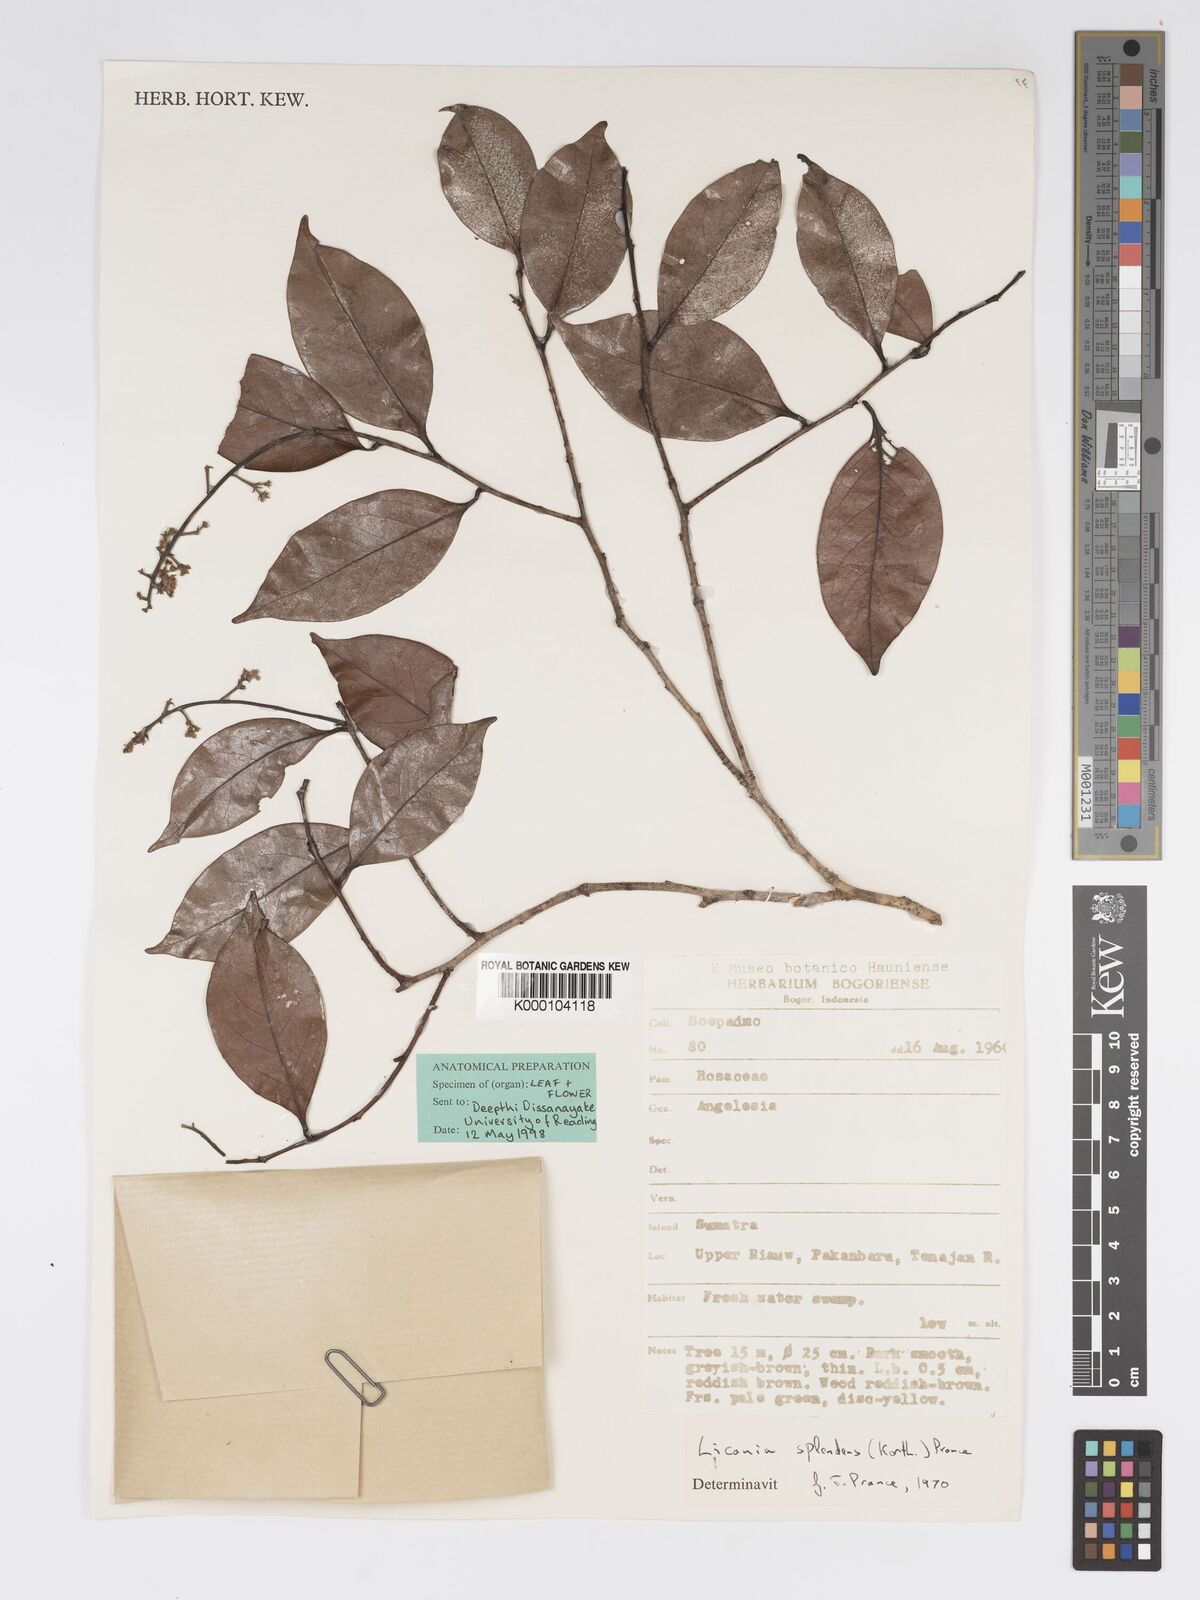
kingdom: Plantae
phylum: Tracheophyta
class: Magnoliopsida
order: Malpighiales
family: Chrysobalanaceae
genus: Angelesia
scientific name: Angelesia splendens
